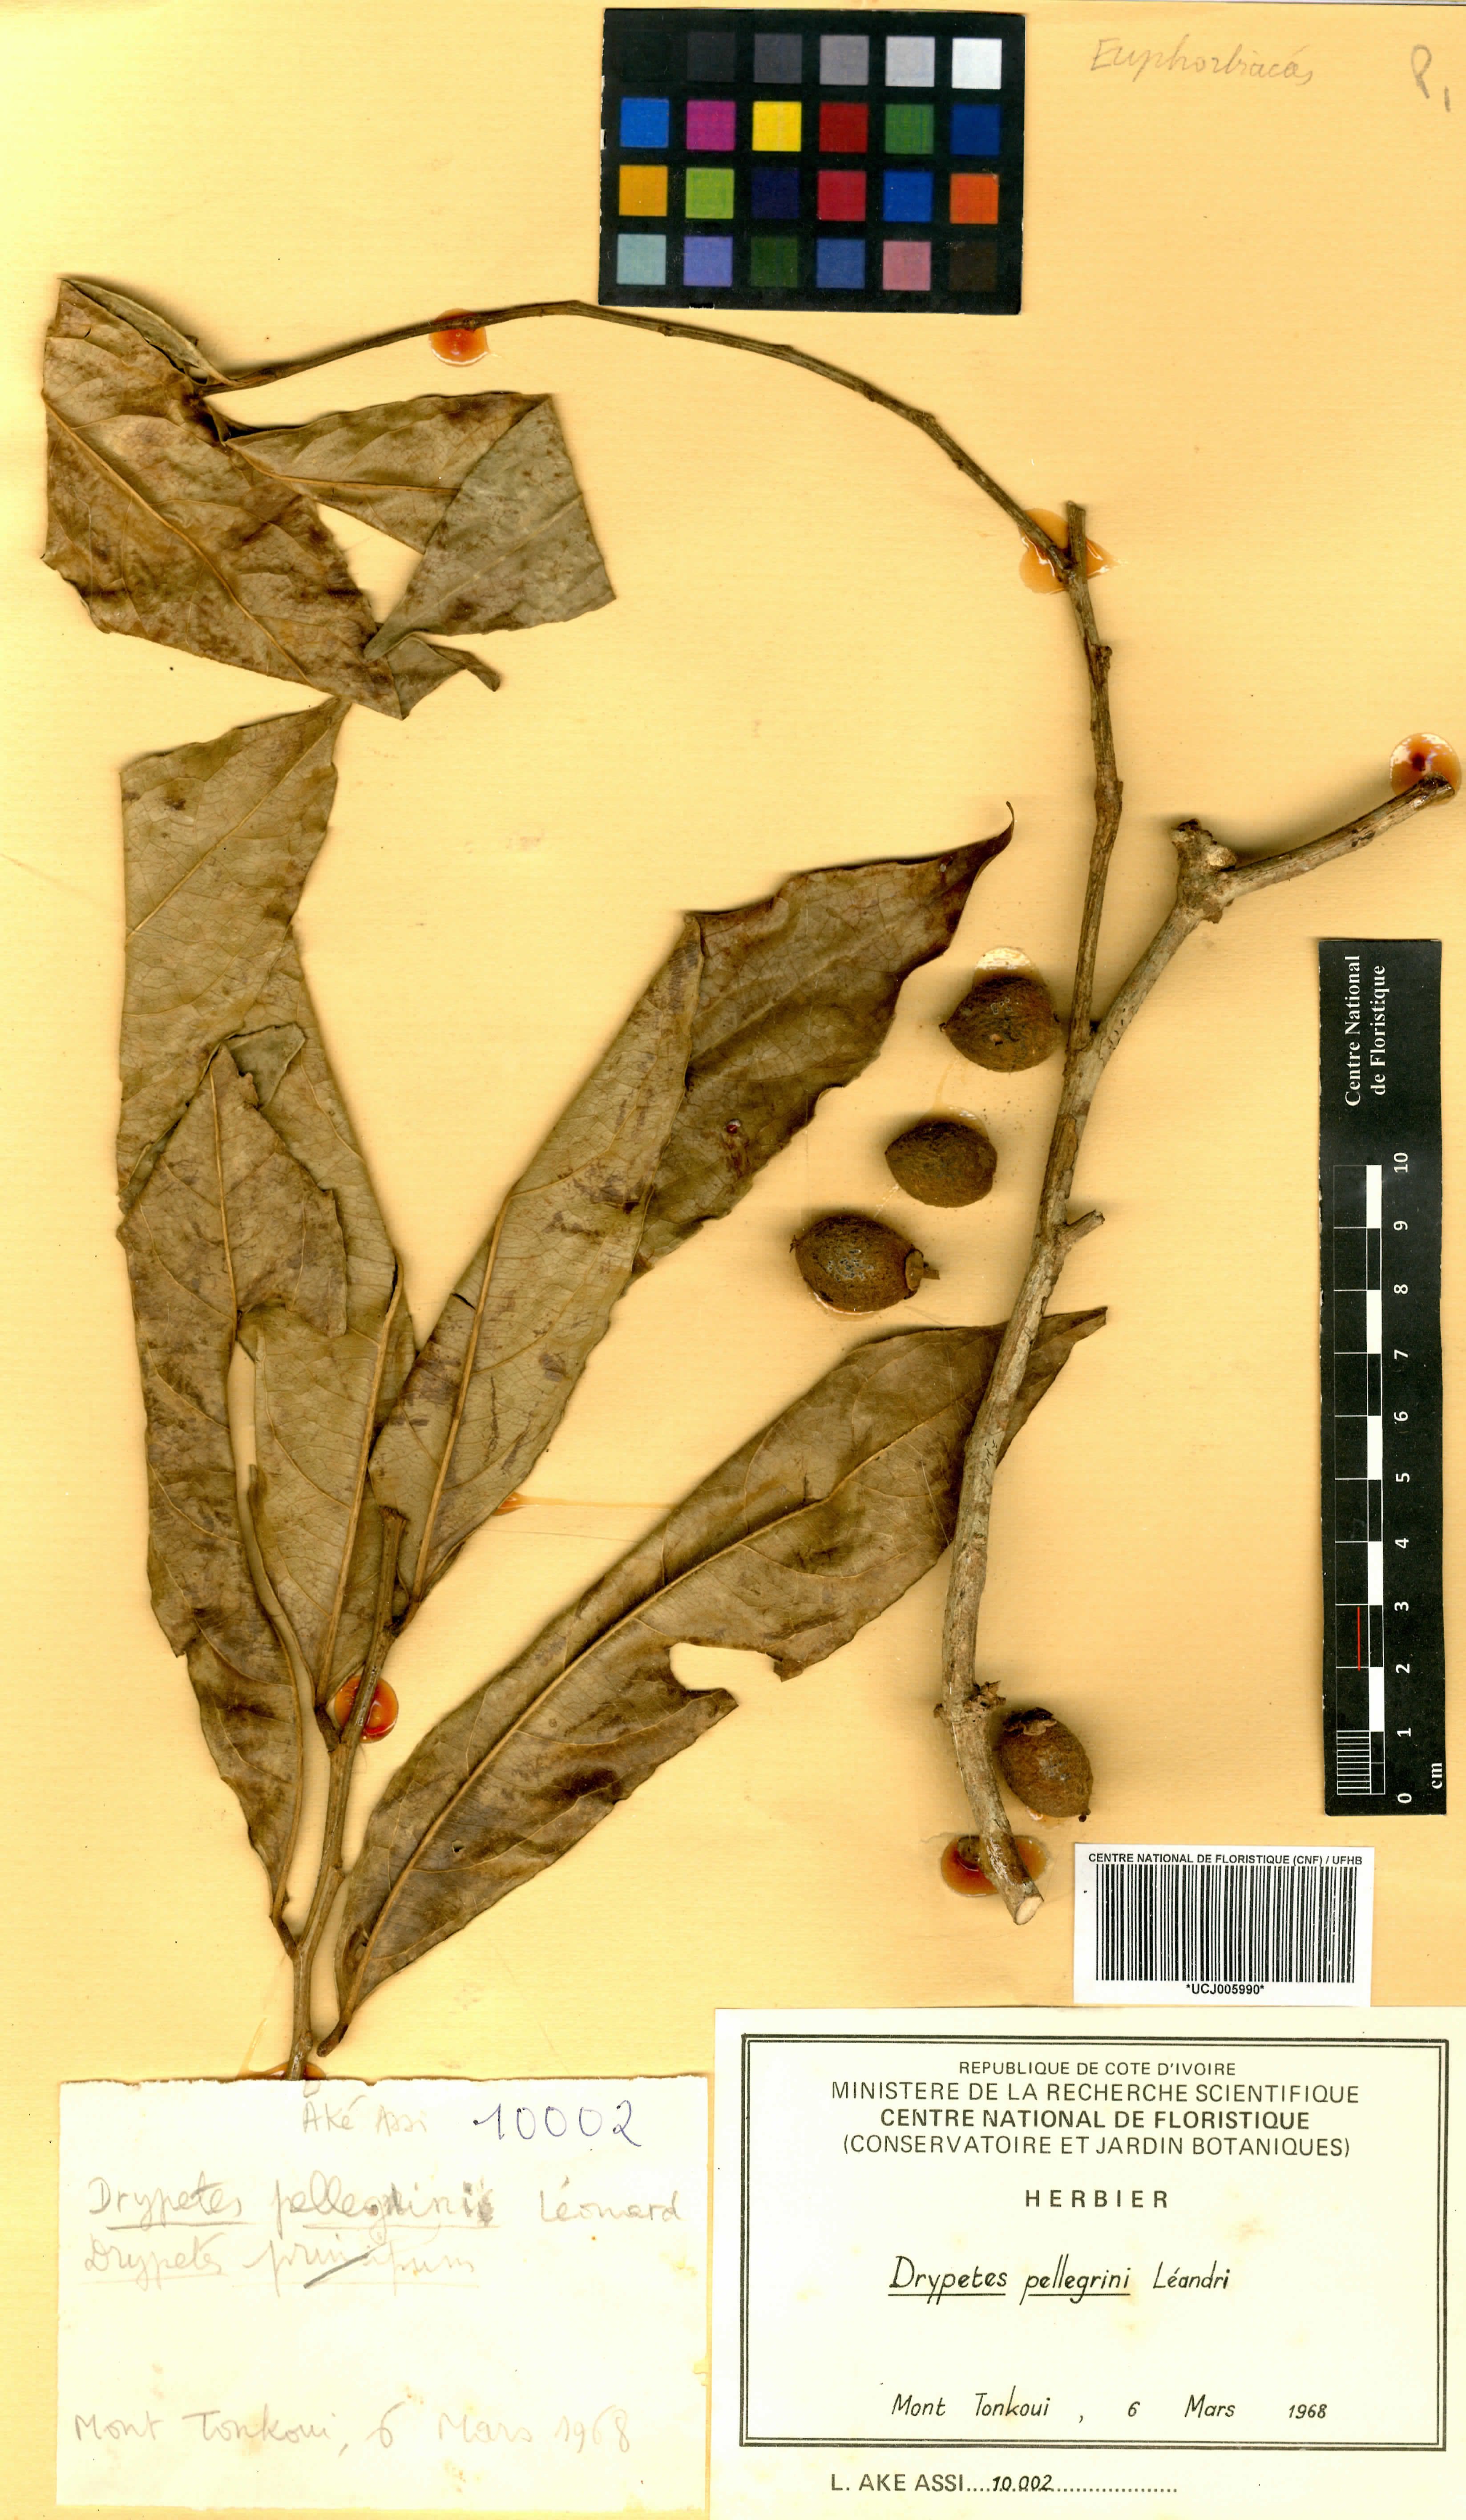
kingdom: Plantae
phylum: Tracheophyta
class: Magnoliopsida
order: Malpighiales
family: Putranjivaceae
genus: Drypetes
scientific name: Drypetes pellegrinii
